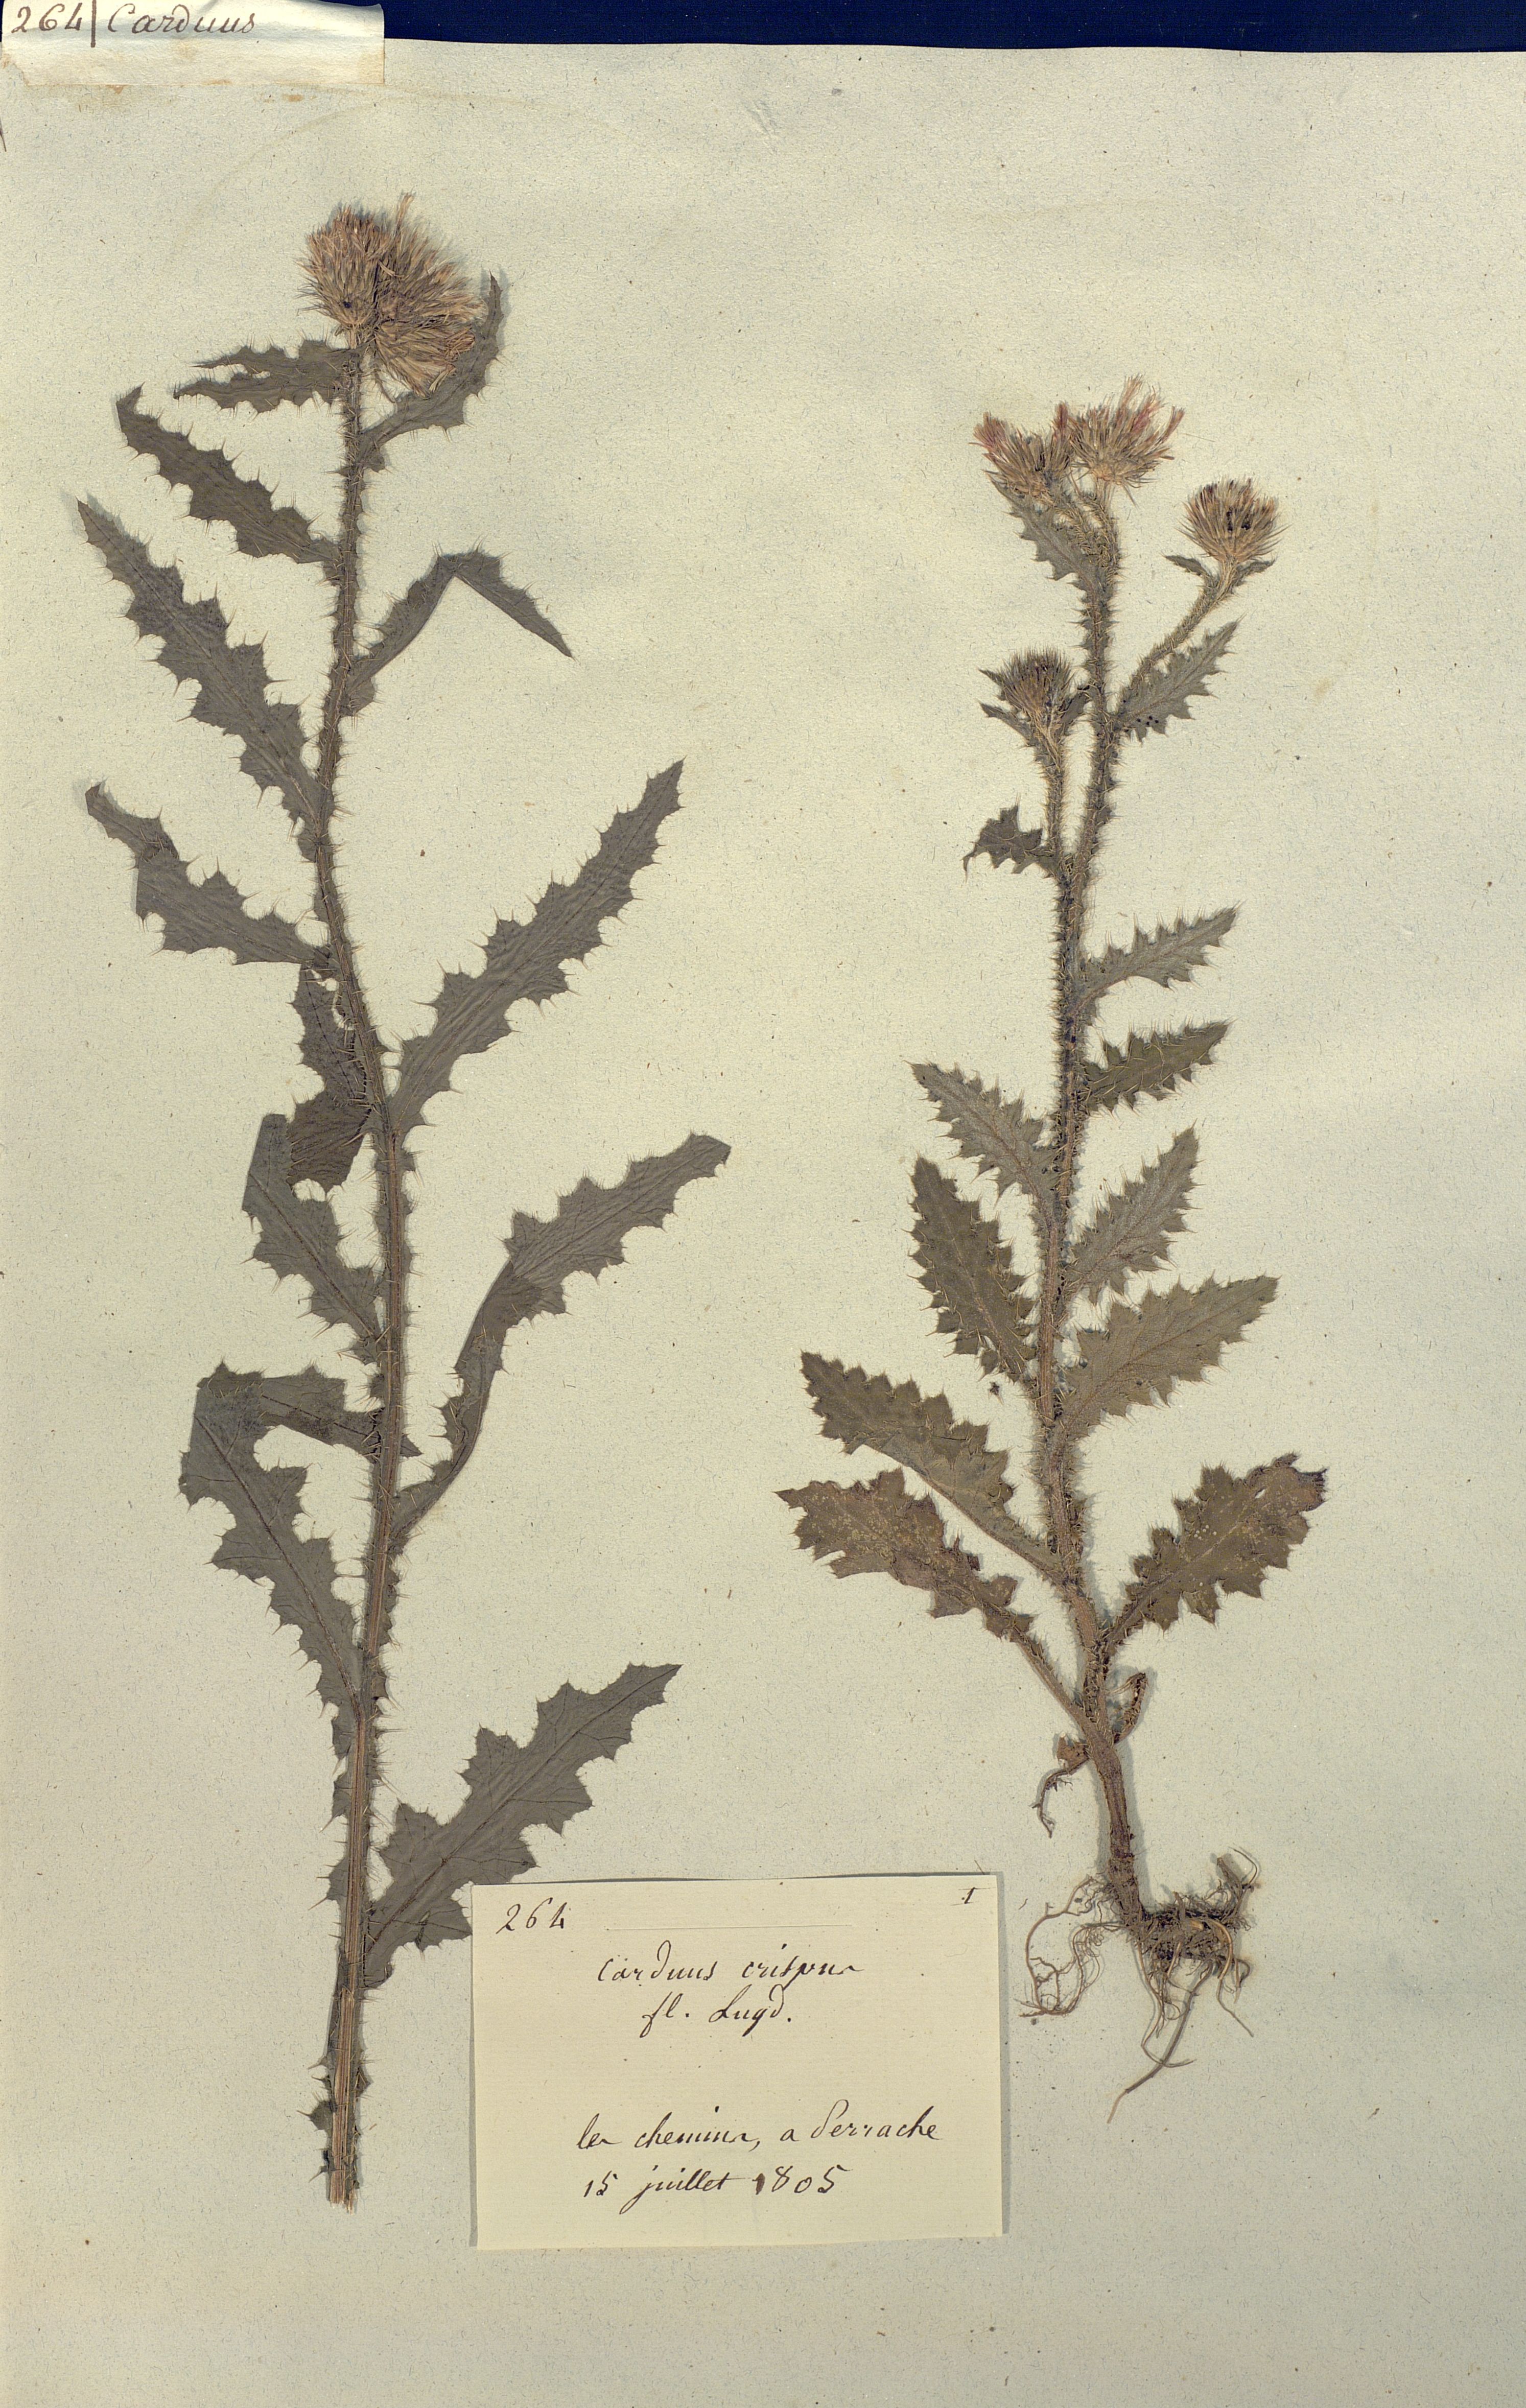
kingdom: Plantae
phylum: Tracheophyta
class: Magnoliopsida
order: Asterales
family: Asteraceae
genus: Carduus
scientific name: Carduus crispus
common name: Welted thistle
